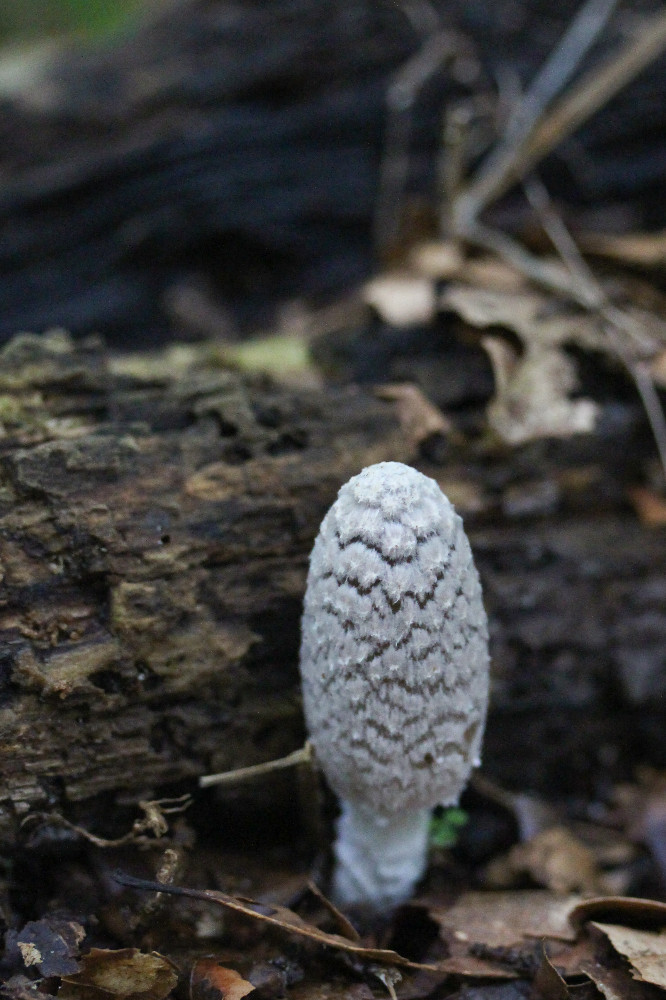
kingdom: Fungi
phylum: Basidiomycota
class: Agaricomycetes
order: Agaricales
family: Psathyrellaceae
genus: Coprinopsis
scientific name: Coprinopsis picacea
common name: skade-blækhat
